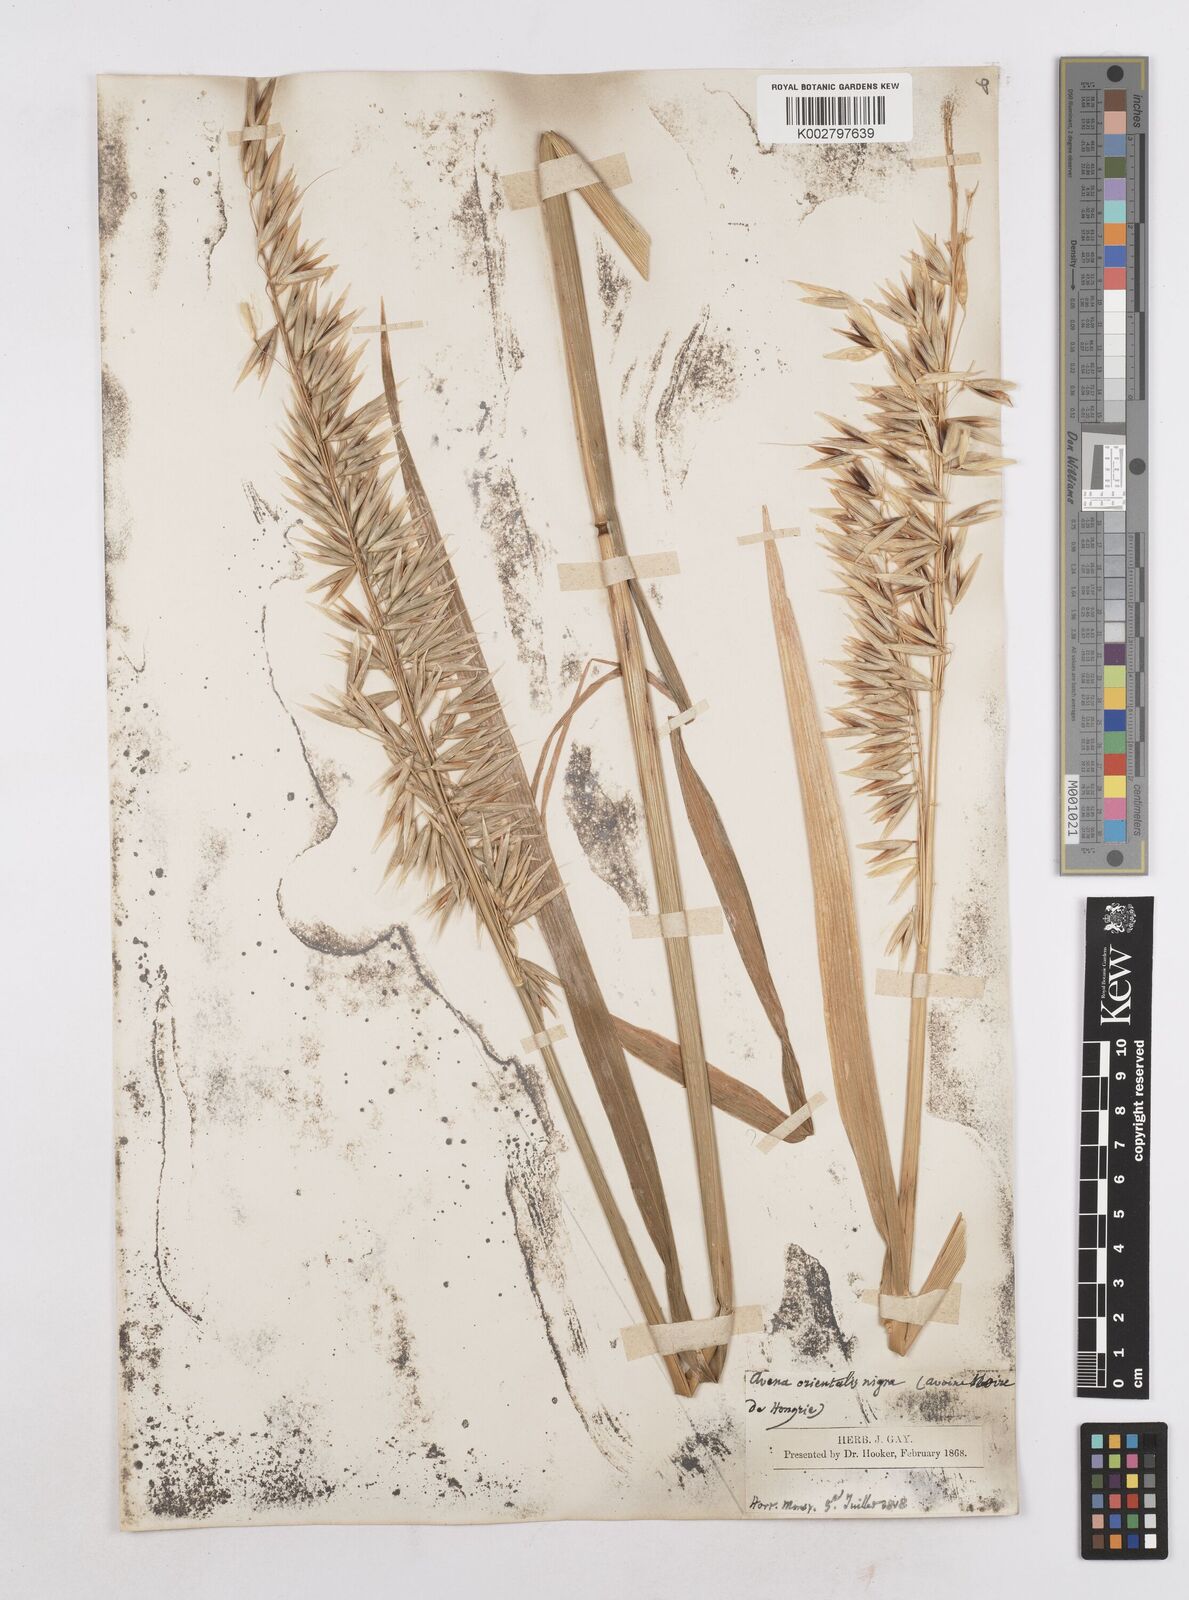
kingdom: Plantae
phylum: Tracheophyta
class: Liliopsida
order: Poales
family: Poaceae
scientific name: Poaceae
